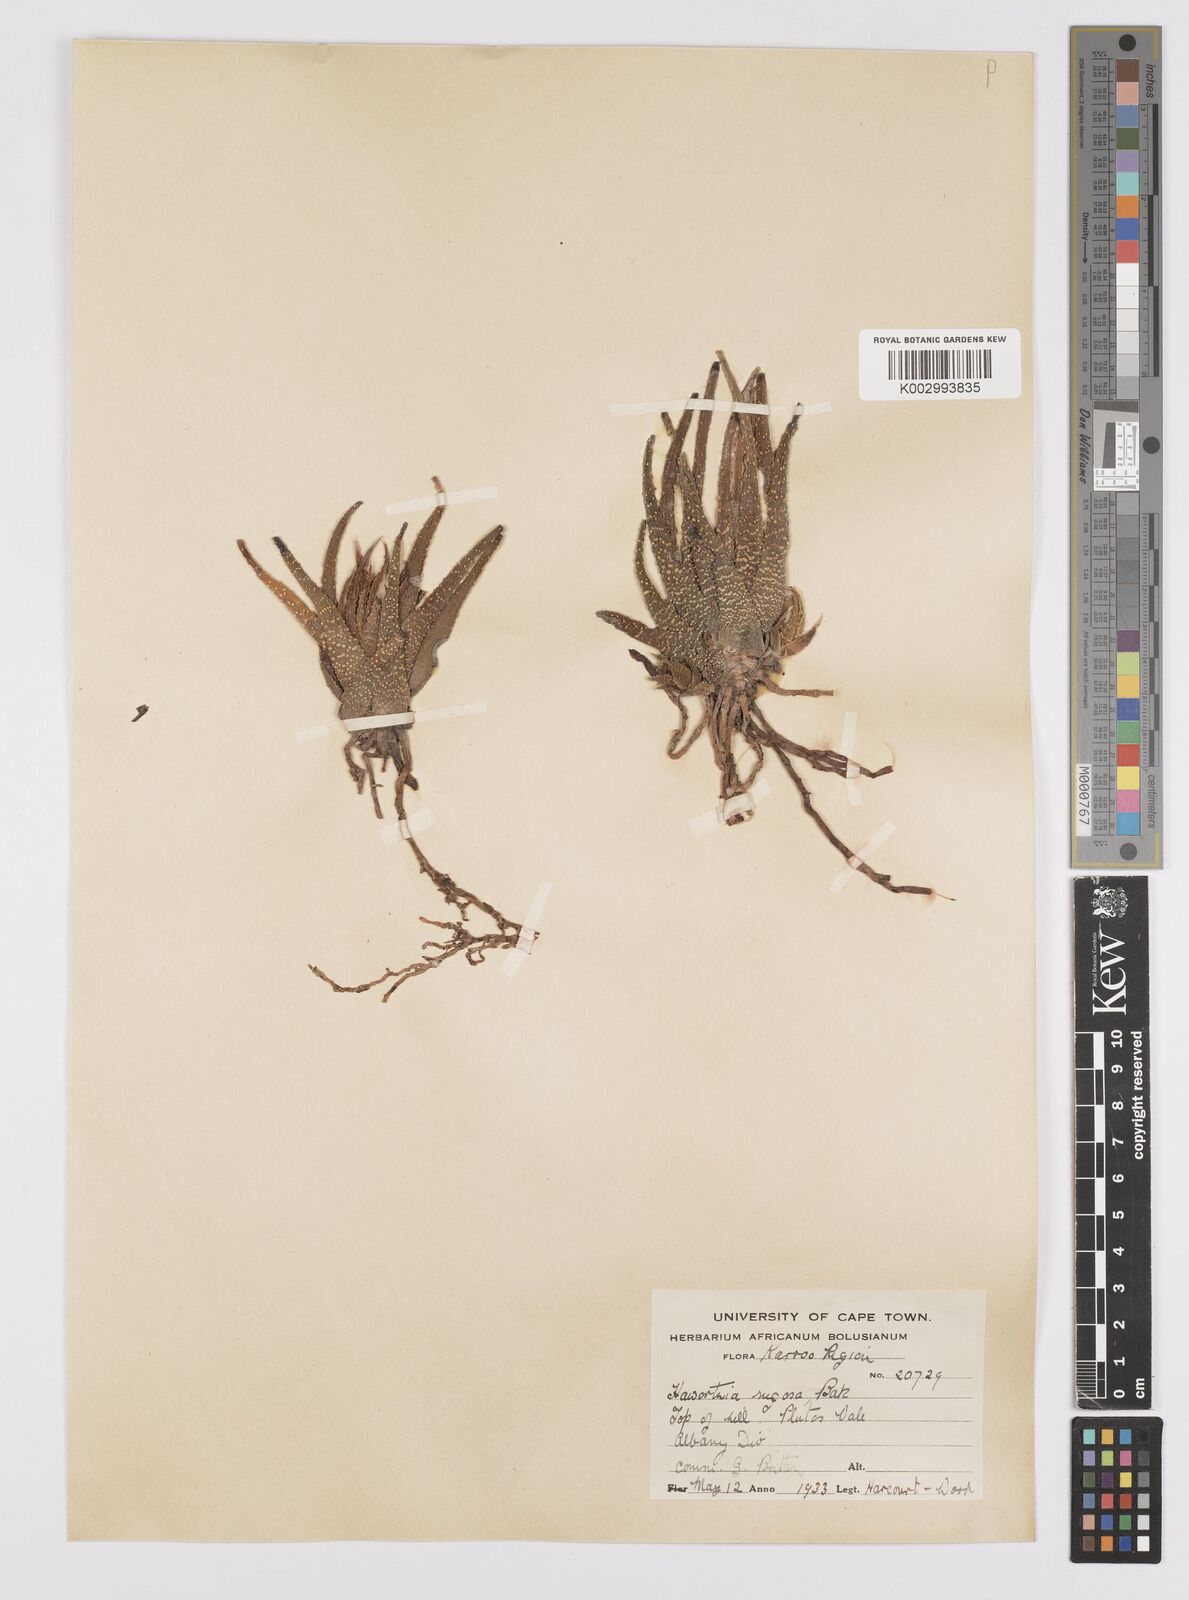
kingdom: Plantae
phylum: Tracheophyta
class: Liliopsida
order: Asparagales
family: Asphodelaceae
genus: Haworthiopsis
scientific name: Haworthiopsis attenuata
